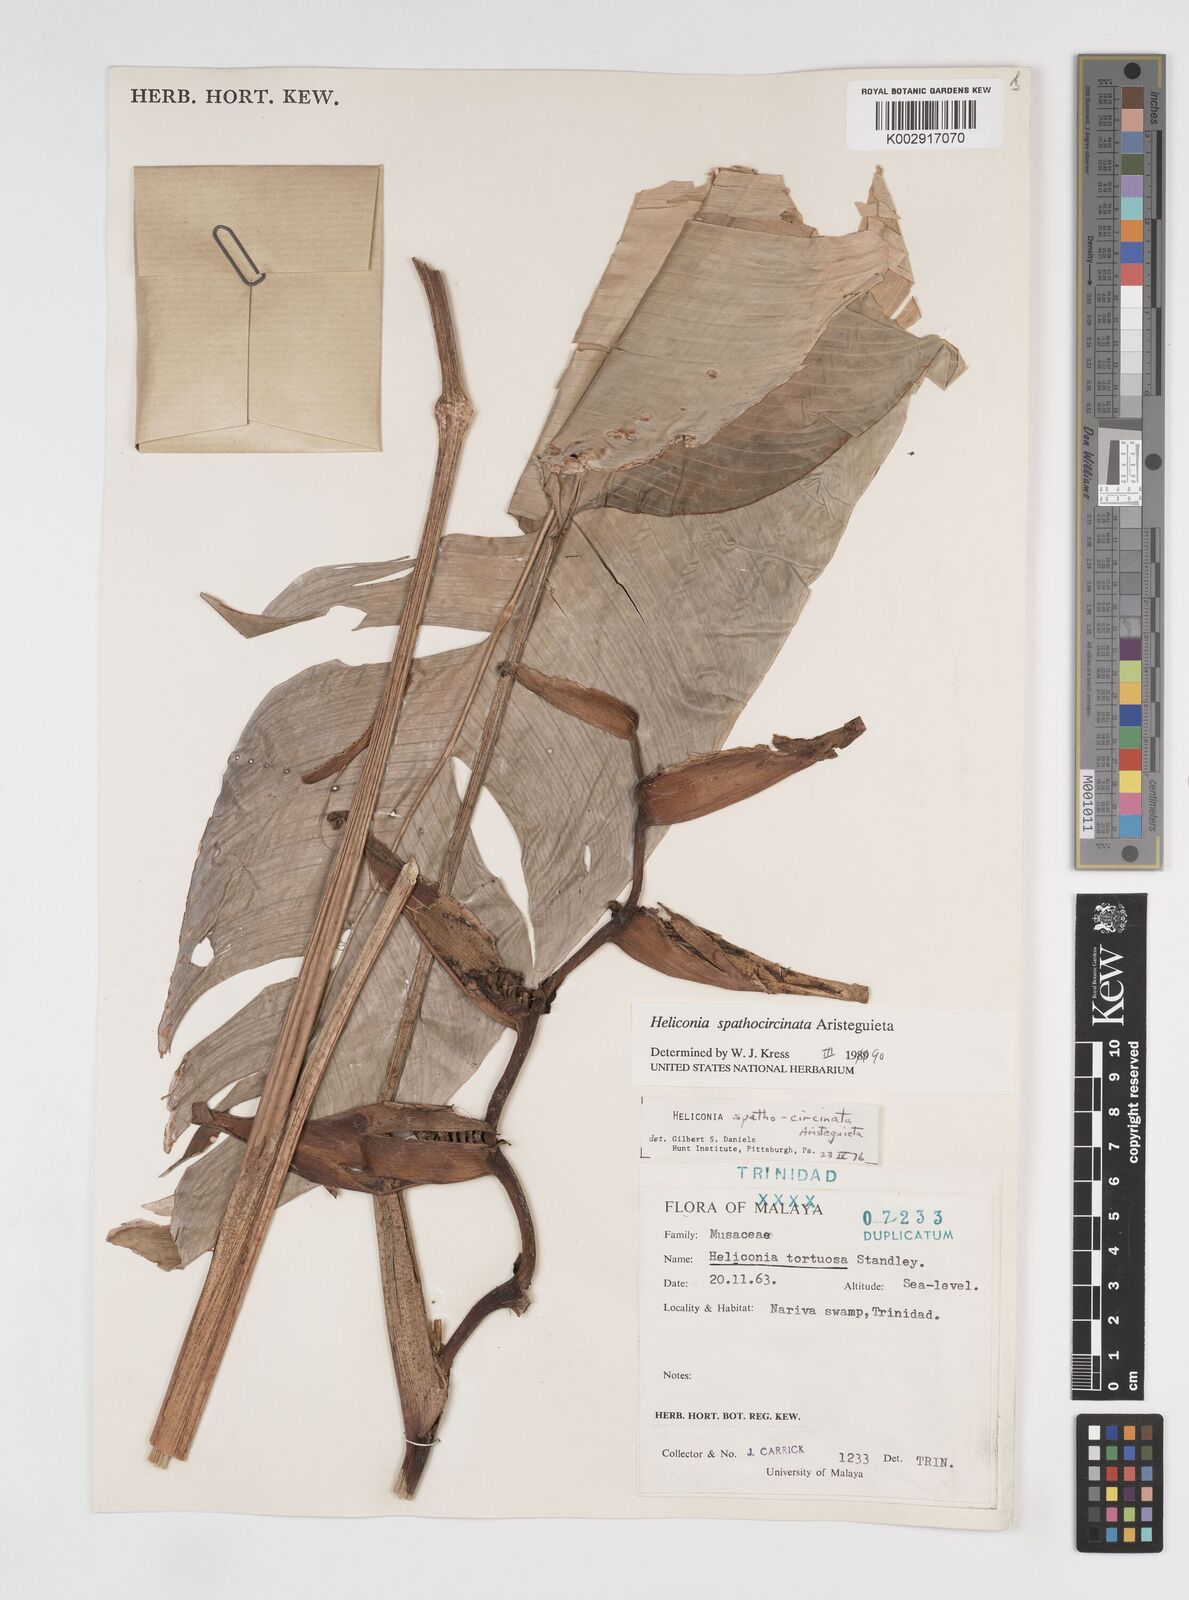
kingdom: Plantae
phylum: Tracheophyta
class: Liliopsida
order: Zingiberales
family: Heliconiaceae
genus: Heliconia
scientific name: Heliconia spathocircinata
